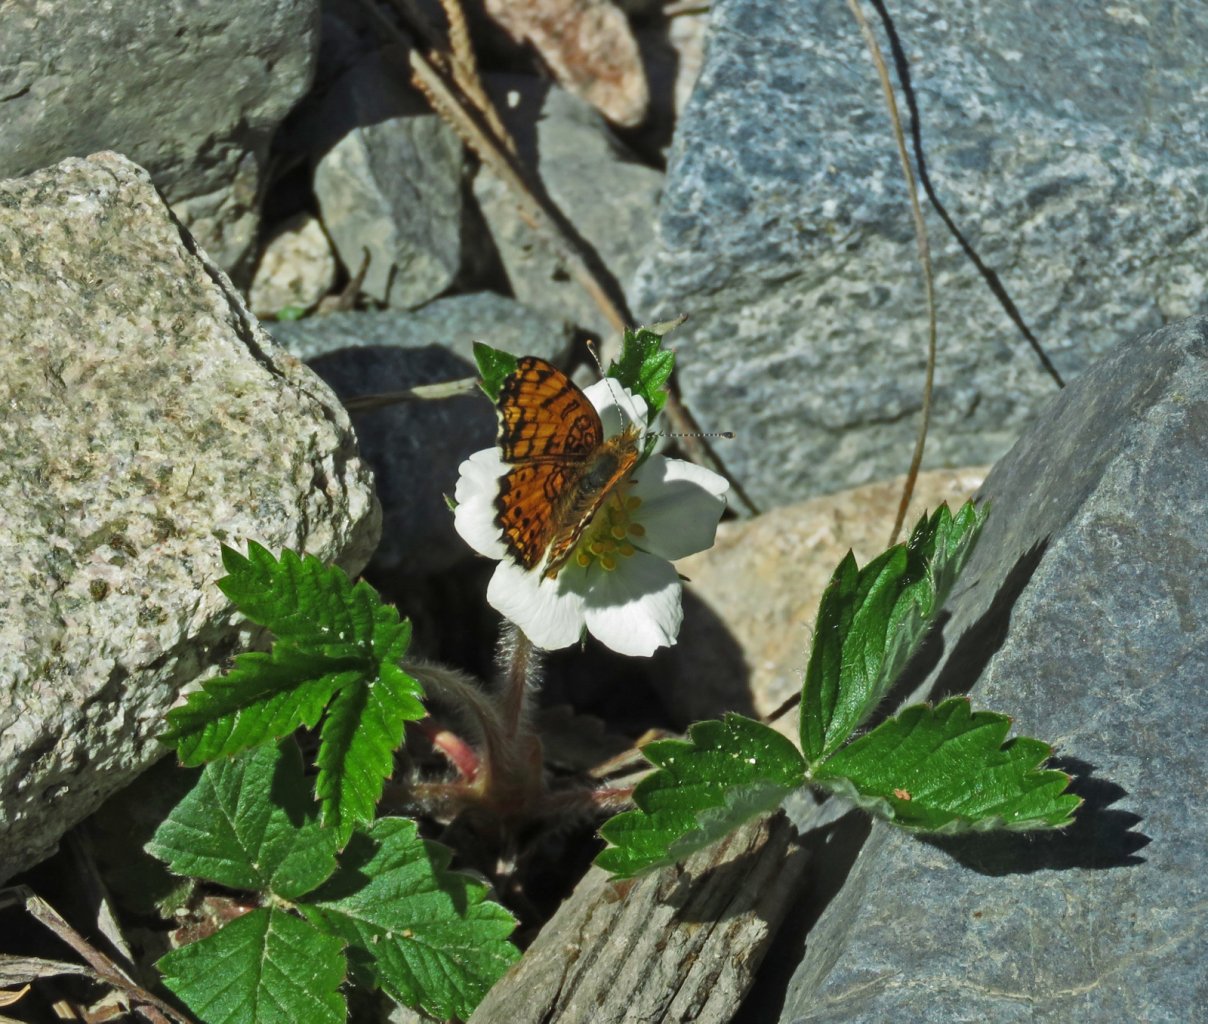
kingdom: Animalia
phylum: Arthropoda
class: Insecta
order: Lepidoptera
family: Nymphalidae
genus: Eresia
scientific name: Eresia aveyrona
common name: Mylitta Crescent
